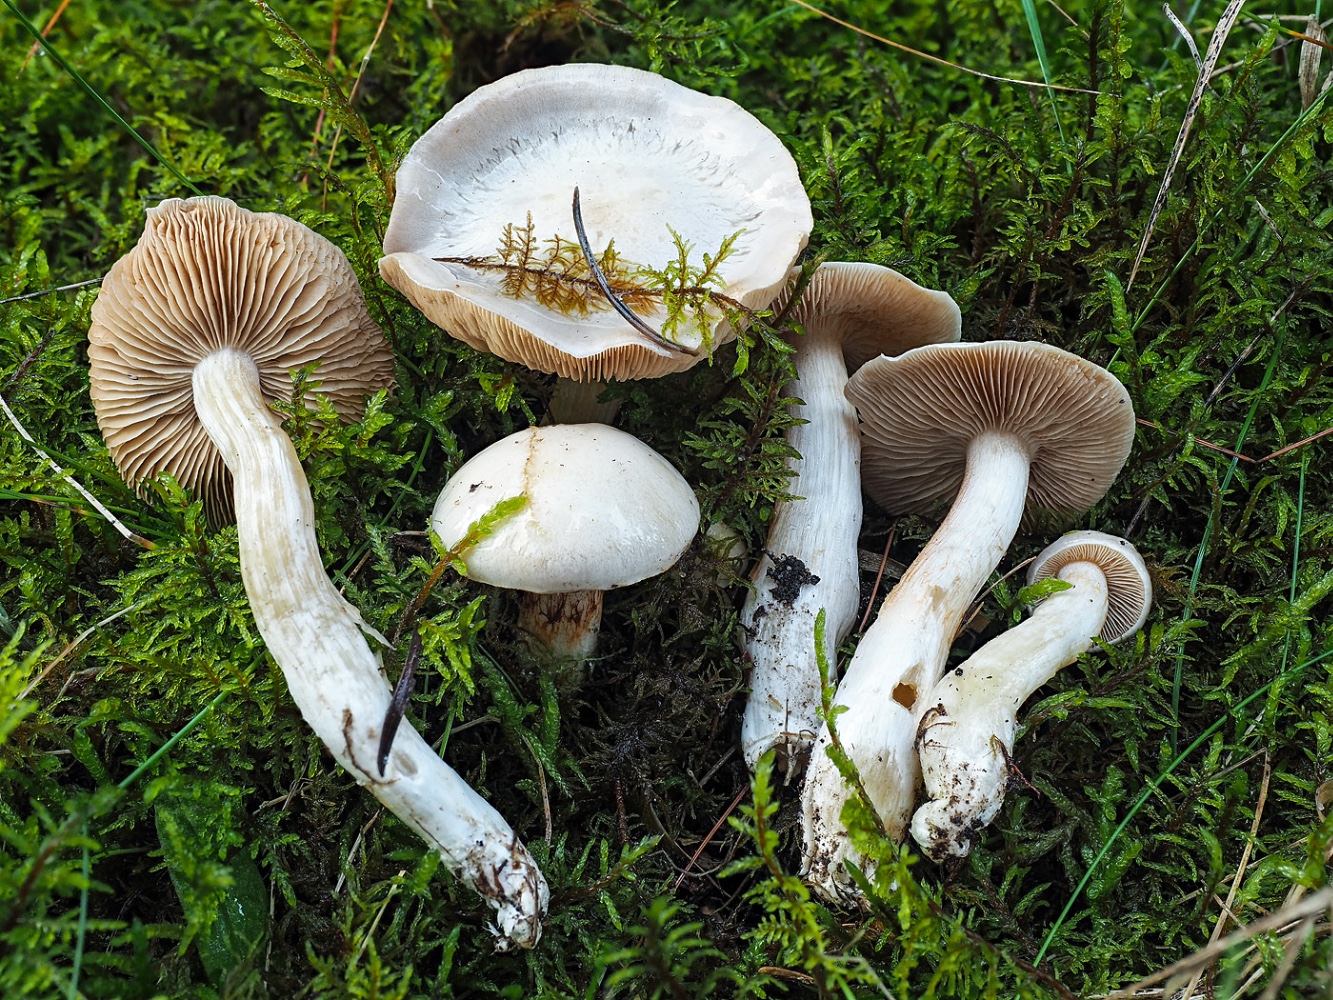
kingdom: Fungi
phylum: Basidiomycota
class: Agaricomycetes
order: Agaricales
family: Cortinariaceae
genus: Thaxterogaster
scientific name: Thaxterogaster leucoluteolus
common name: isabella slørhat
